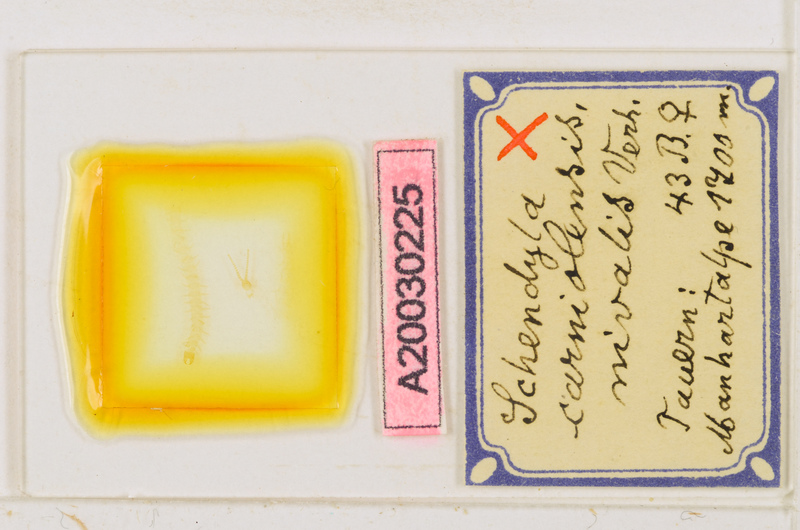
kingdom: Animalia
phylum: Arthropoda
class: Chilopoda
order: Geophilomorpha
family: Schendylidae
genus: Schendyla
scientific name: Schendyla carniolensis
